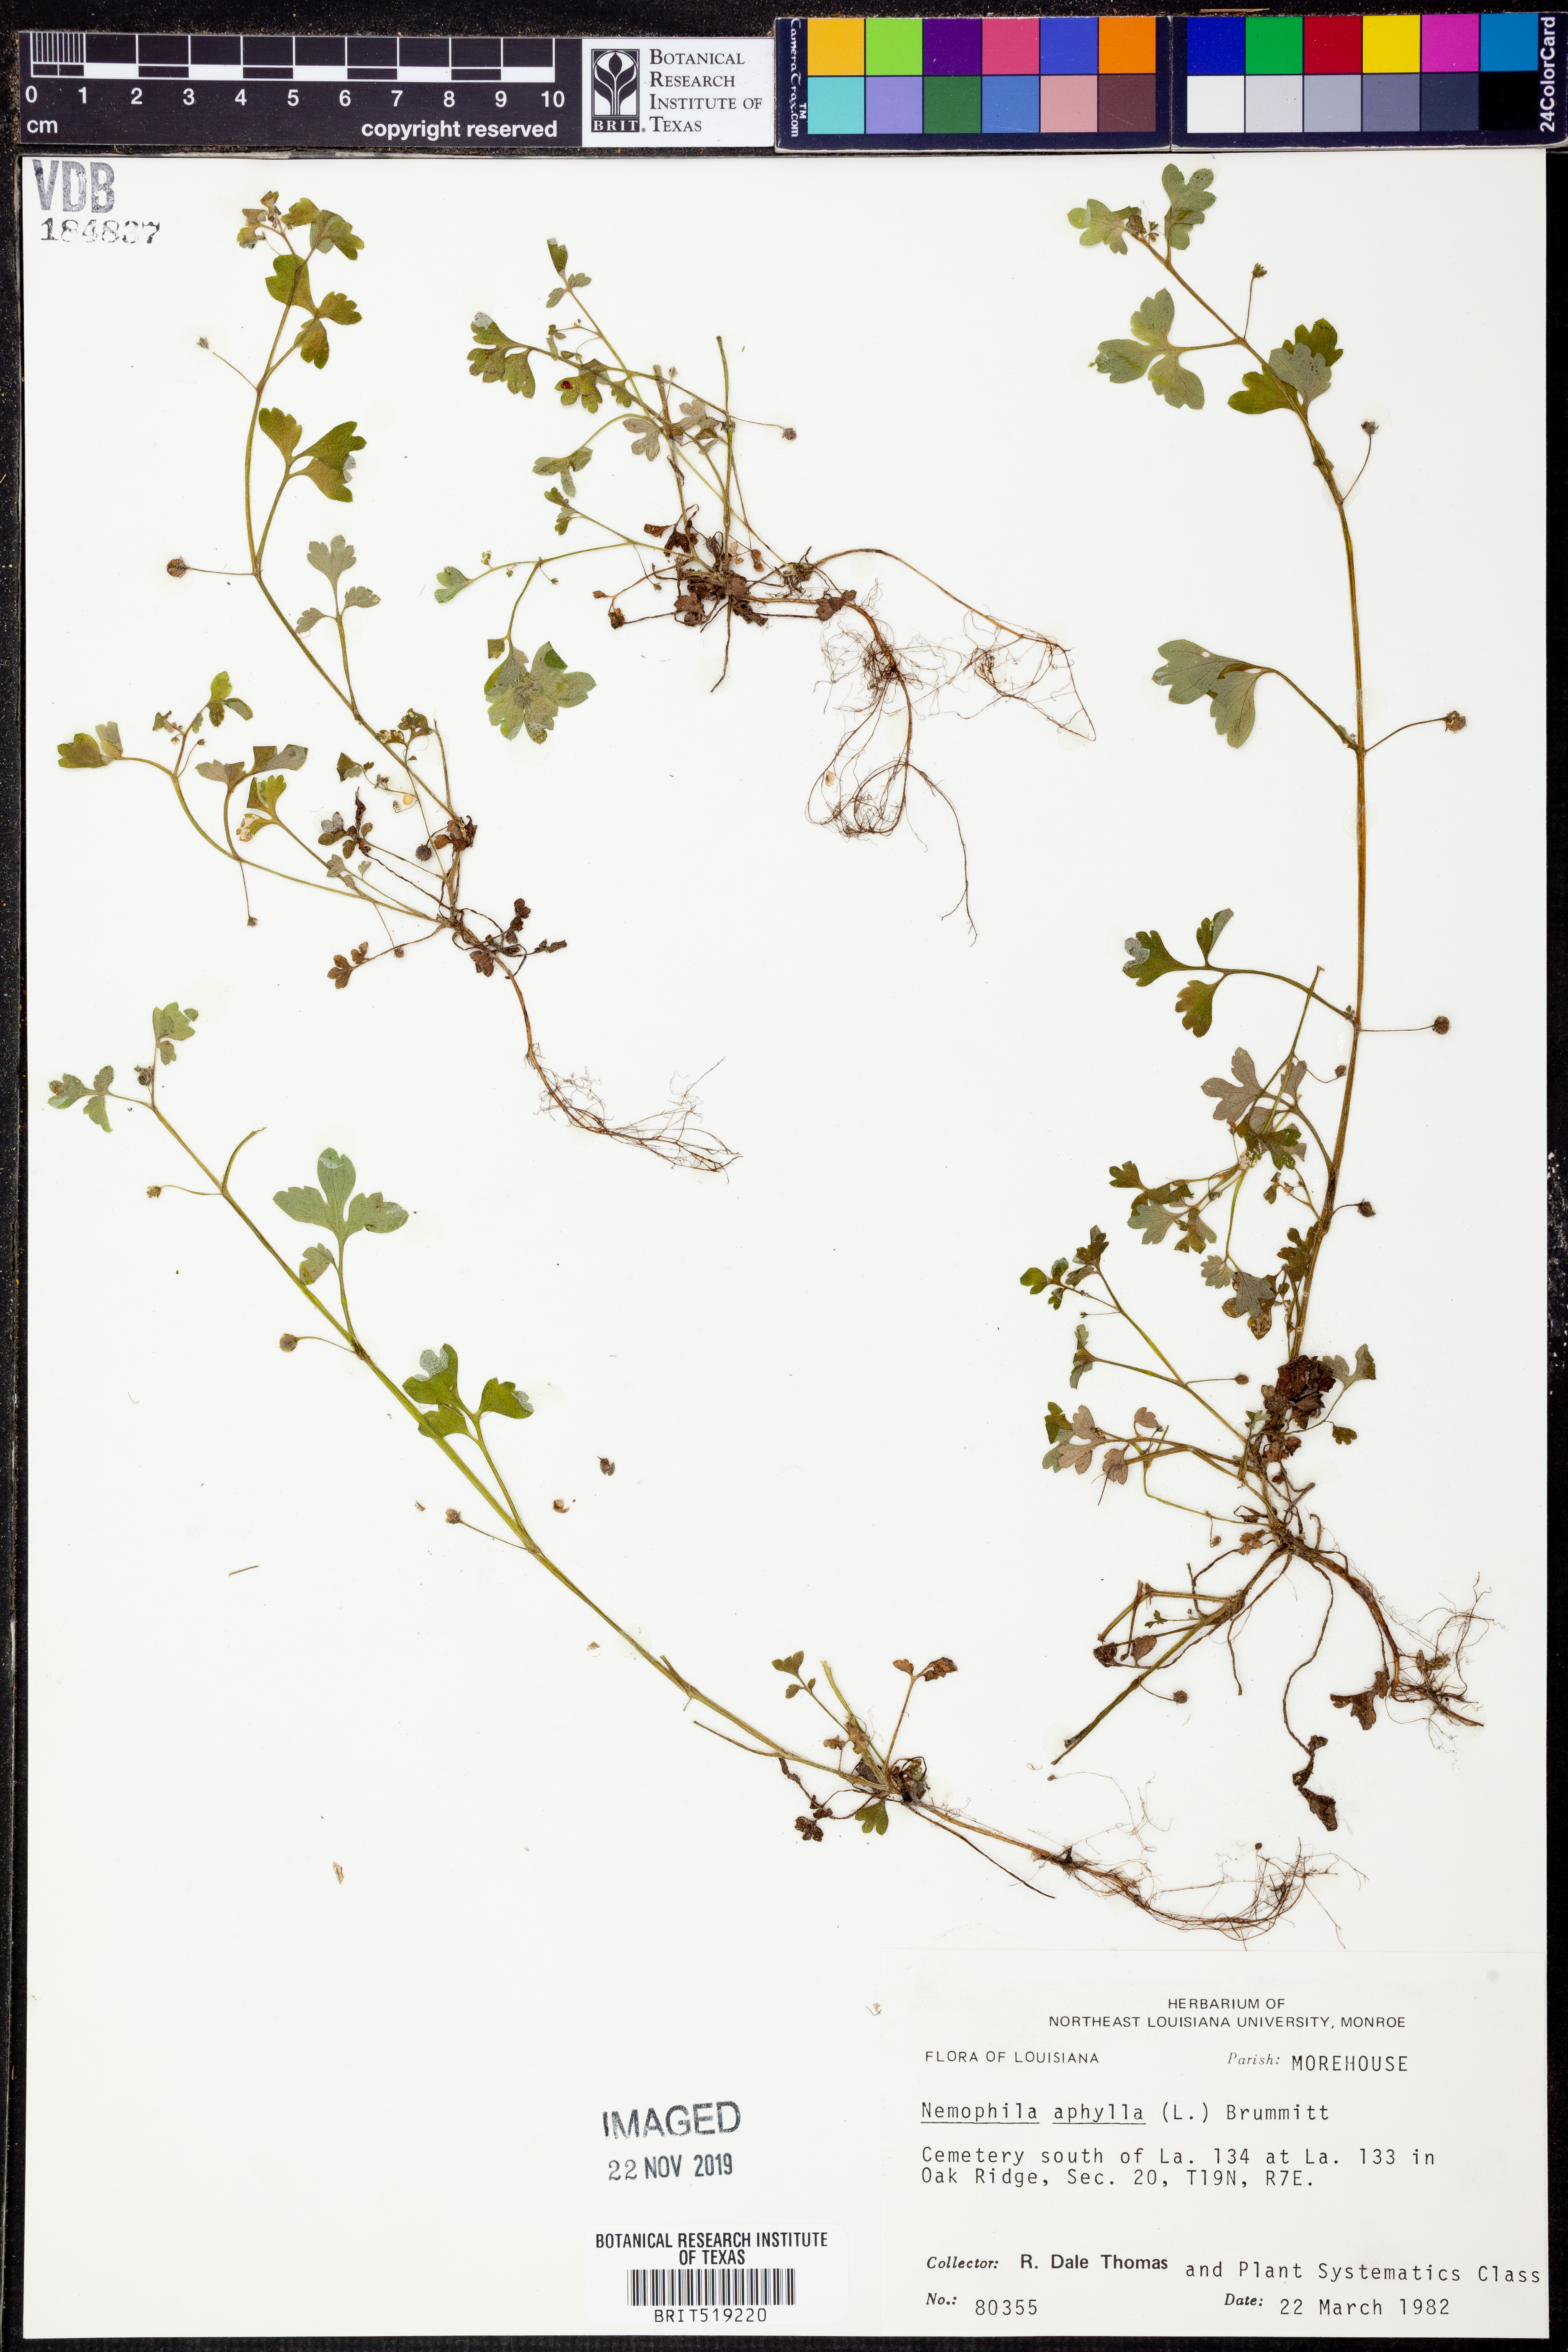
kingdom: Plantae
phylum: Tracheophyta
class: Magnoliopsida
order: Boraginales
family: Hydrophyllaceae
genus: Nemophila
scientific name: Nemophila aphylla
